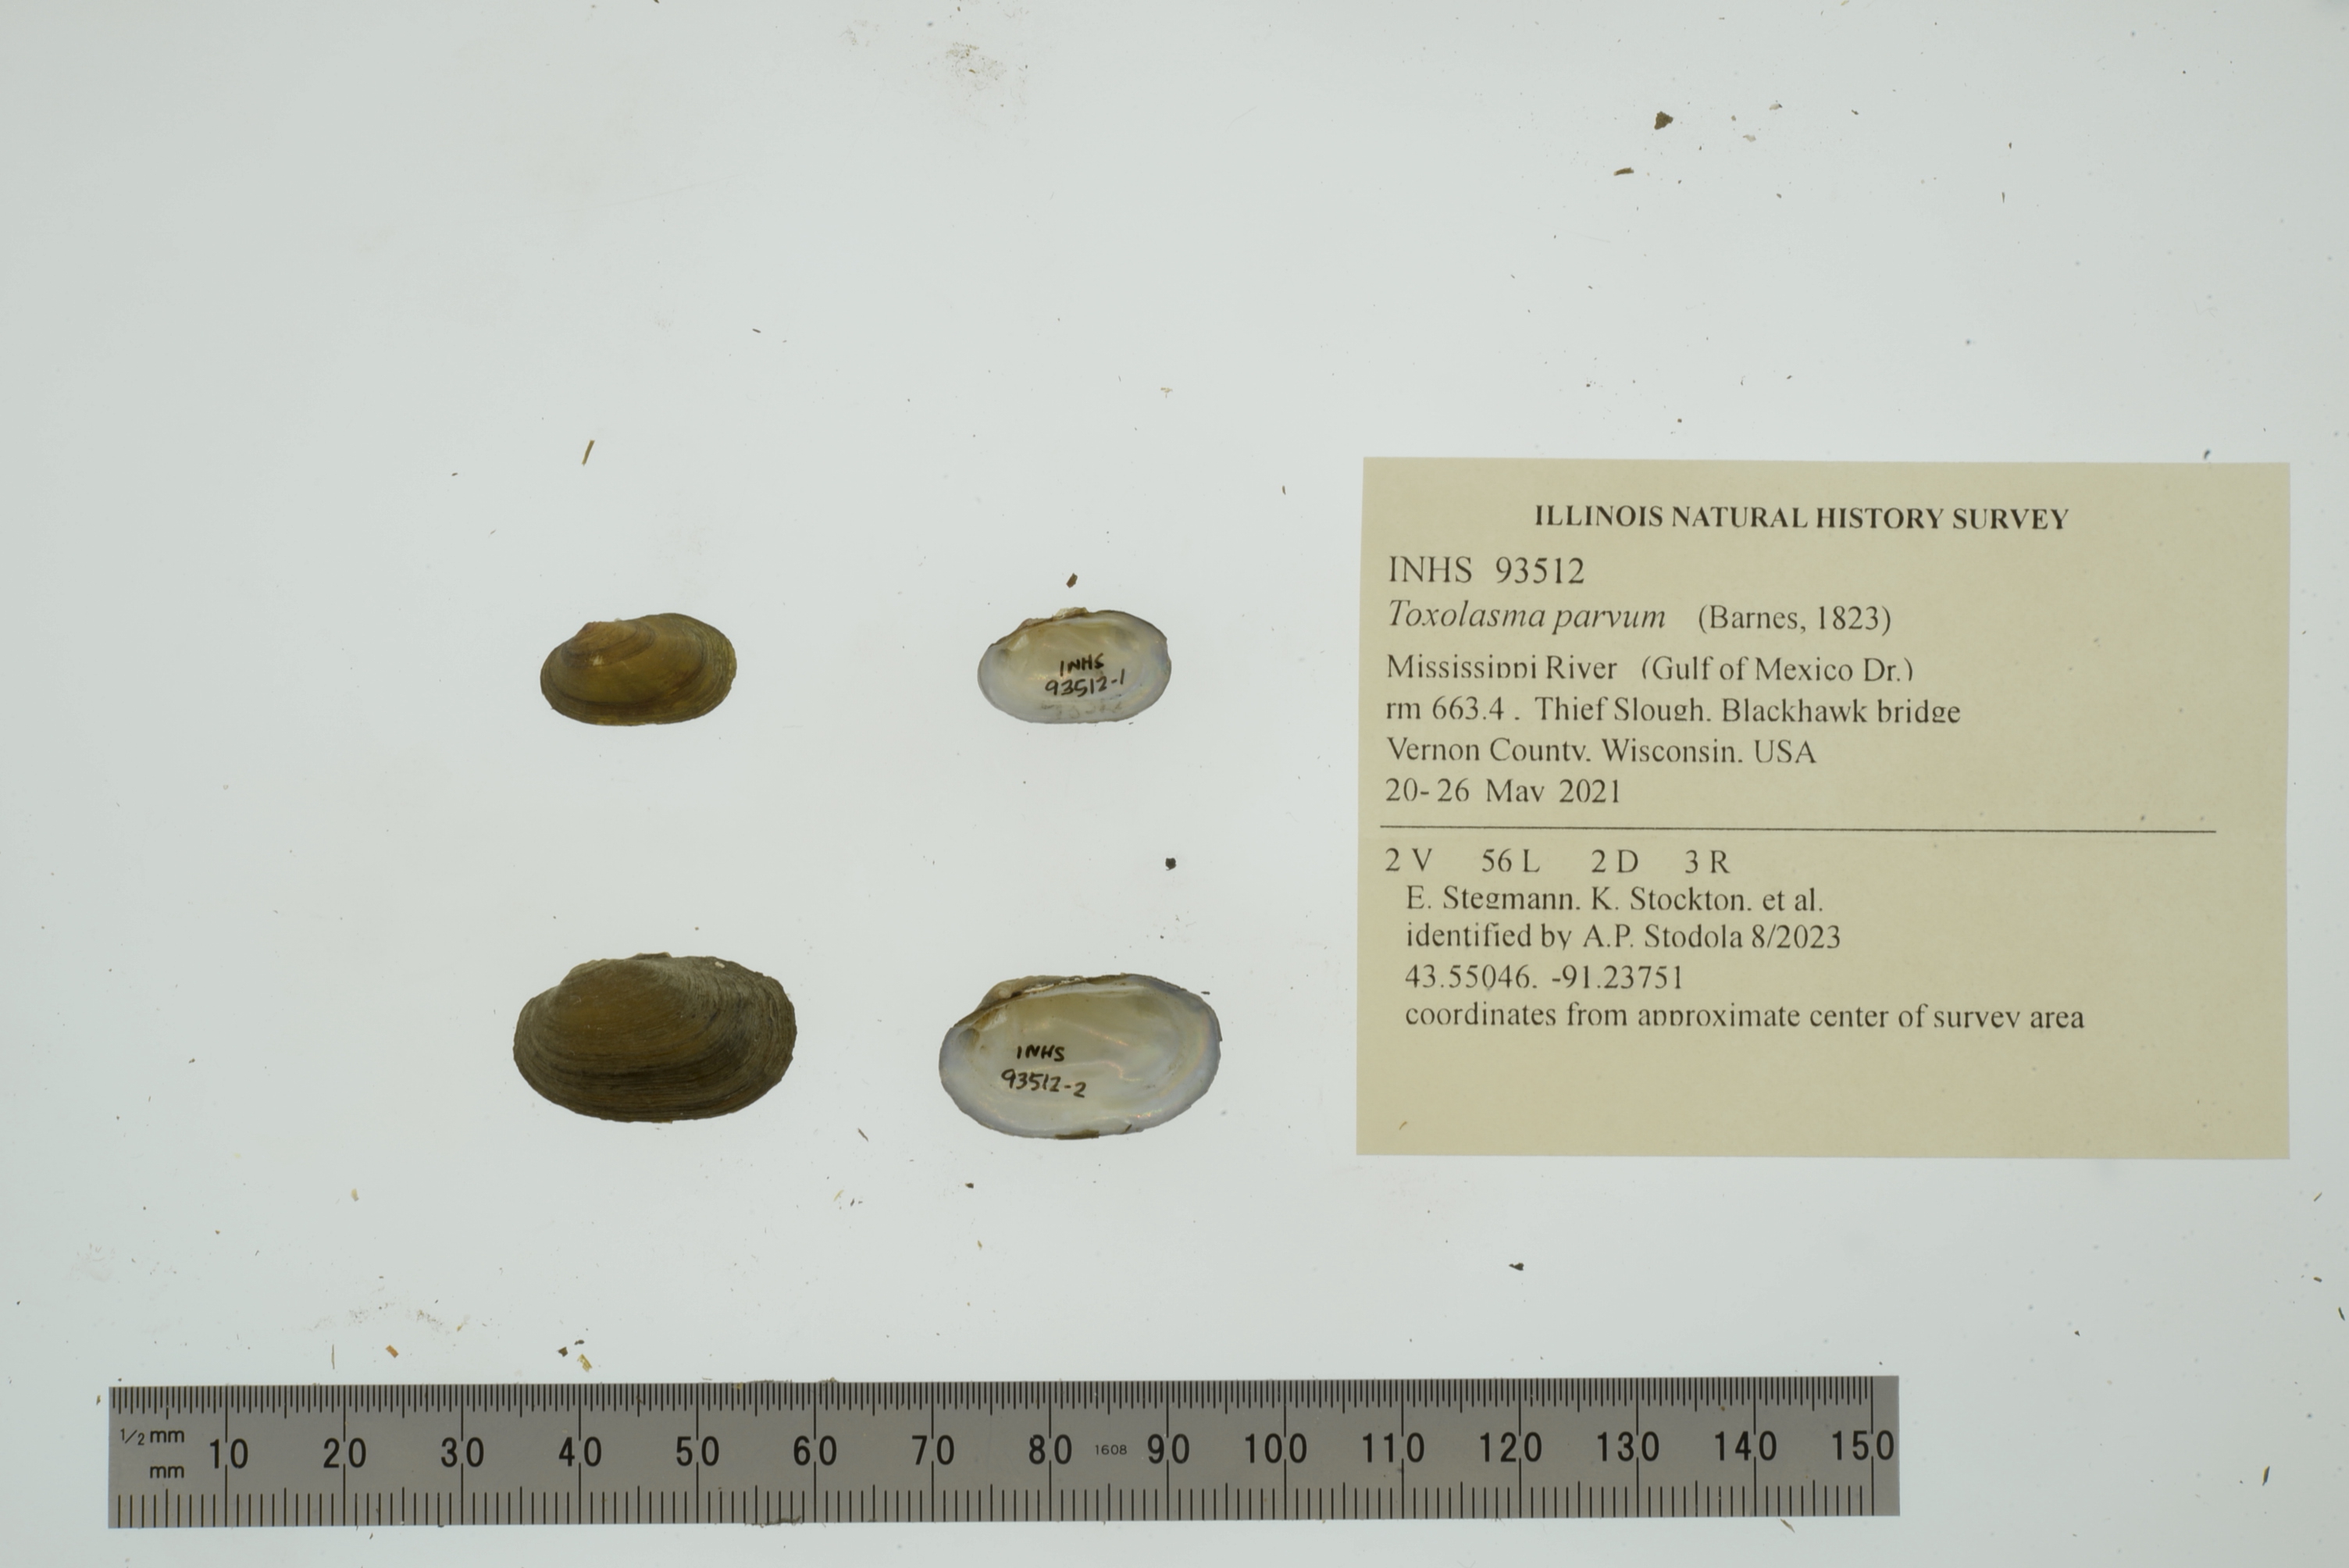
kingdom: Animalia
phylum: Mollusca
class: Bivalvia
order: Unionida
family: Unionidae
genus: Toxolasma
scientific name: Toxolasma parvum
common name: Lilliput
